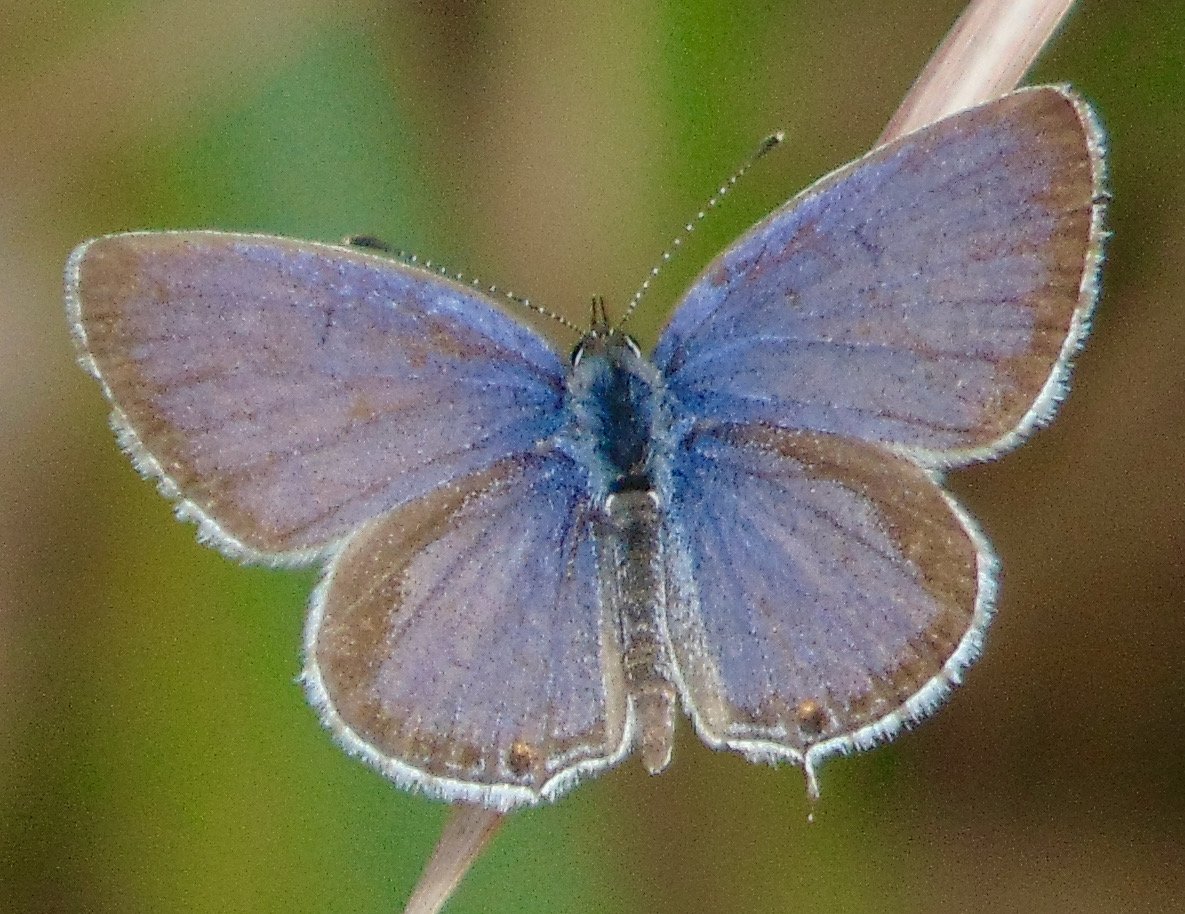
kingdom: Animalia
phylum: Arthropoda
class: Insecta
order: Lepidoptera
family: Lycaenidae
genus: Elkalyce
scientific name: Elkalyce comyntas
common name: Eastern Tailed-Blue
